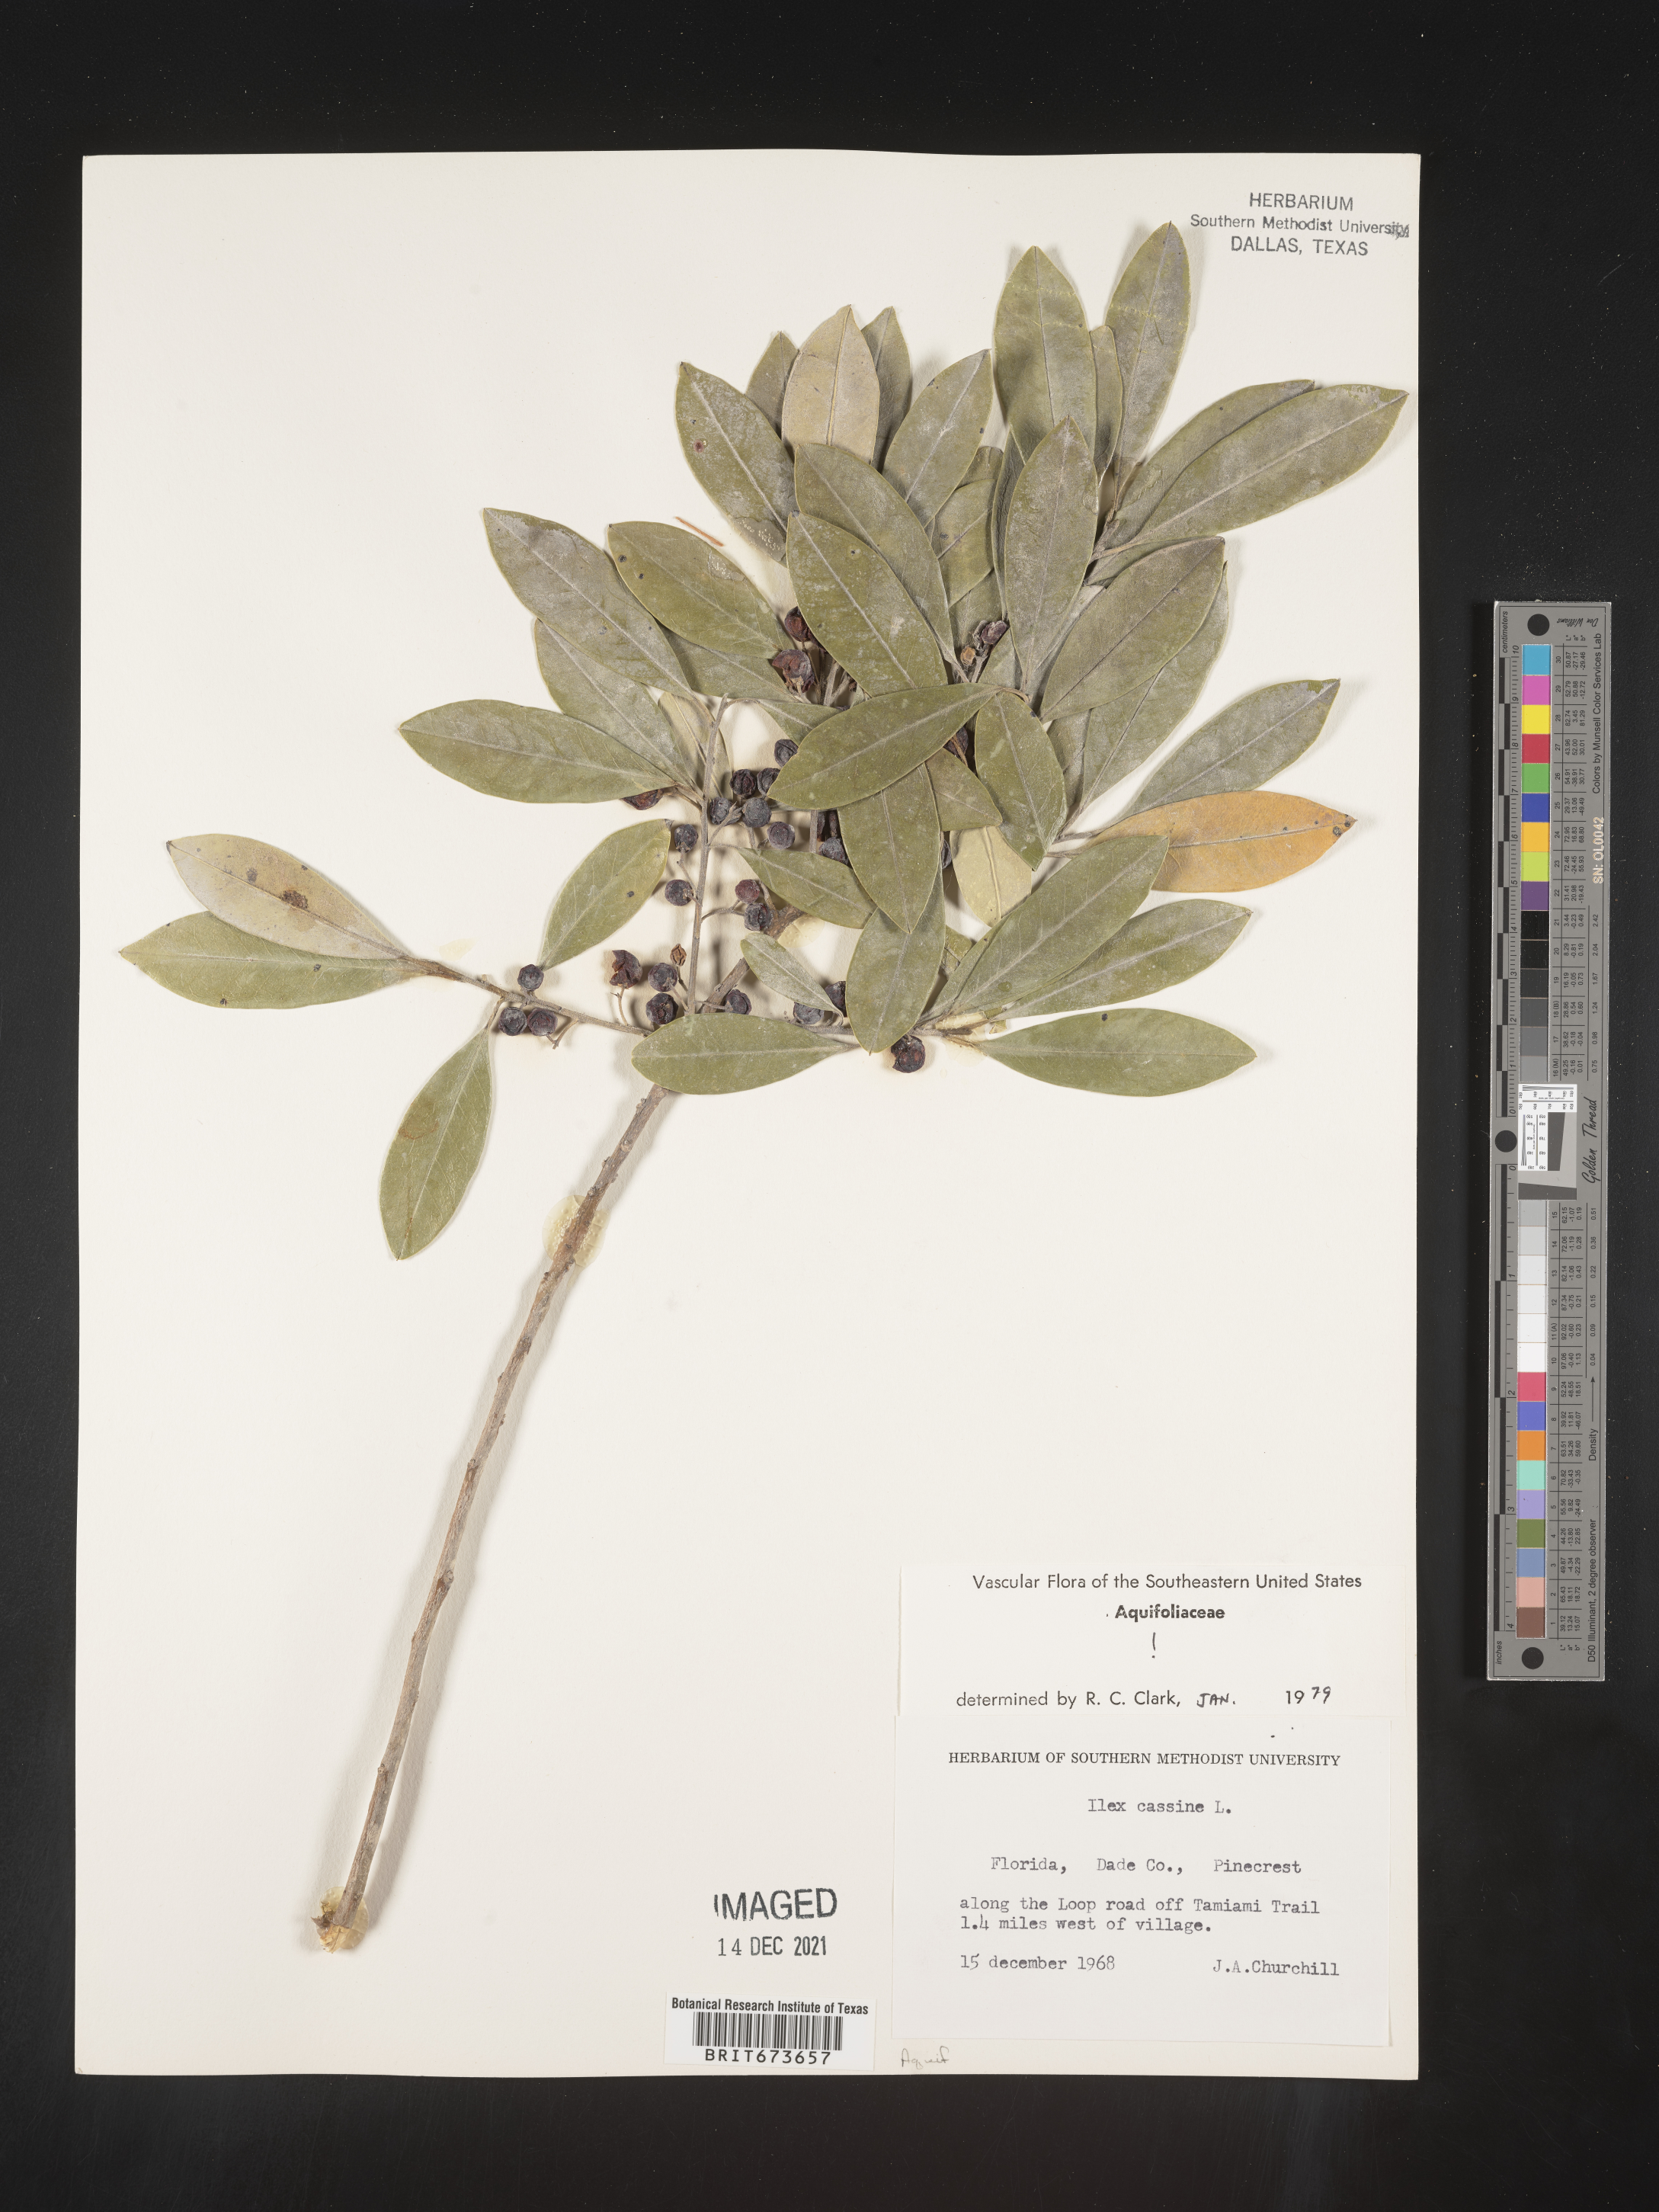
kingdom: Plantae
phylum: Tracheophyta
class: Magnoliopsida
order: Aquifoliales
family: Aquifoliaceae
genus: Ilex
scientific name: Ilex cassine
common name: Dahoon
